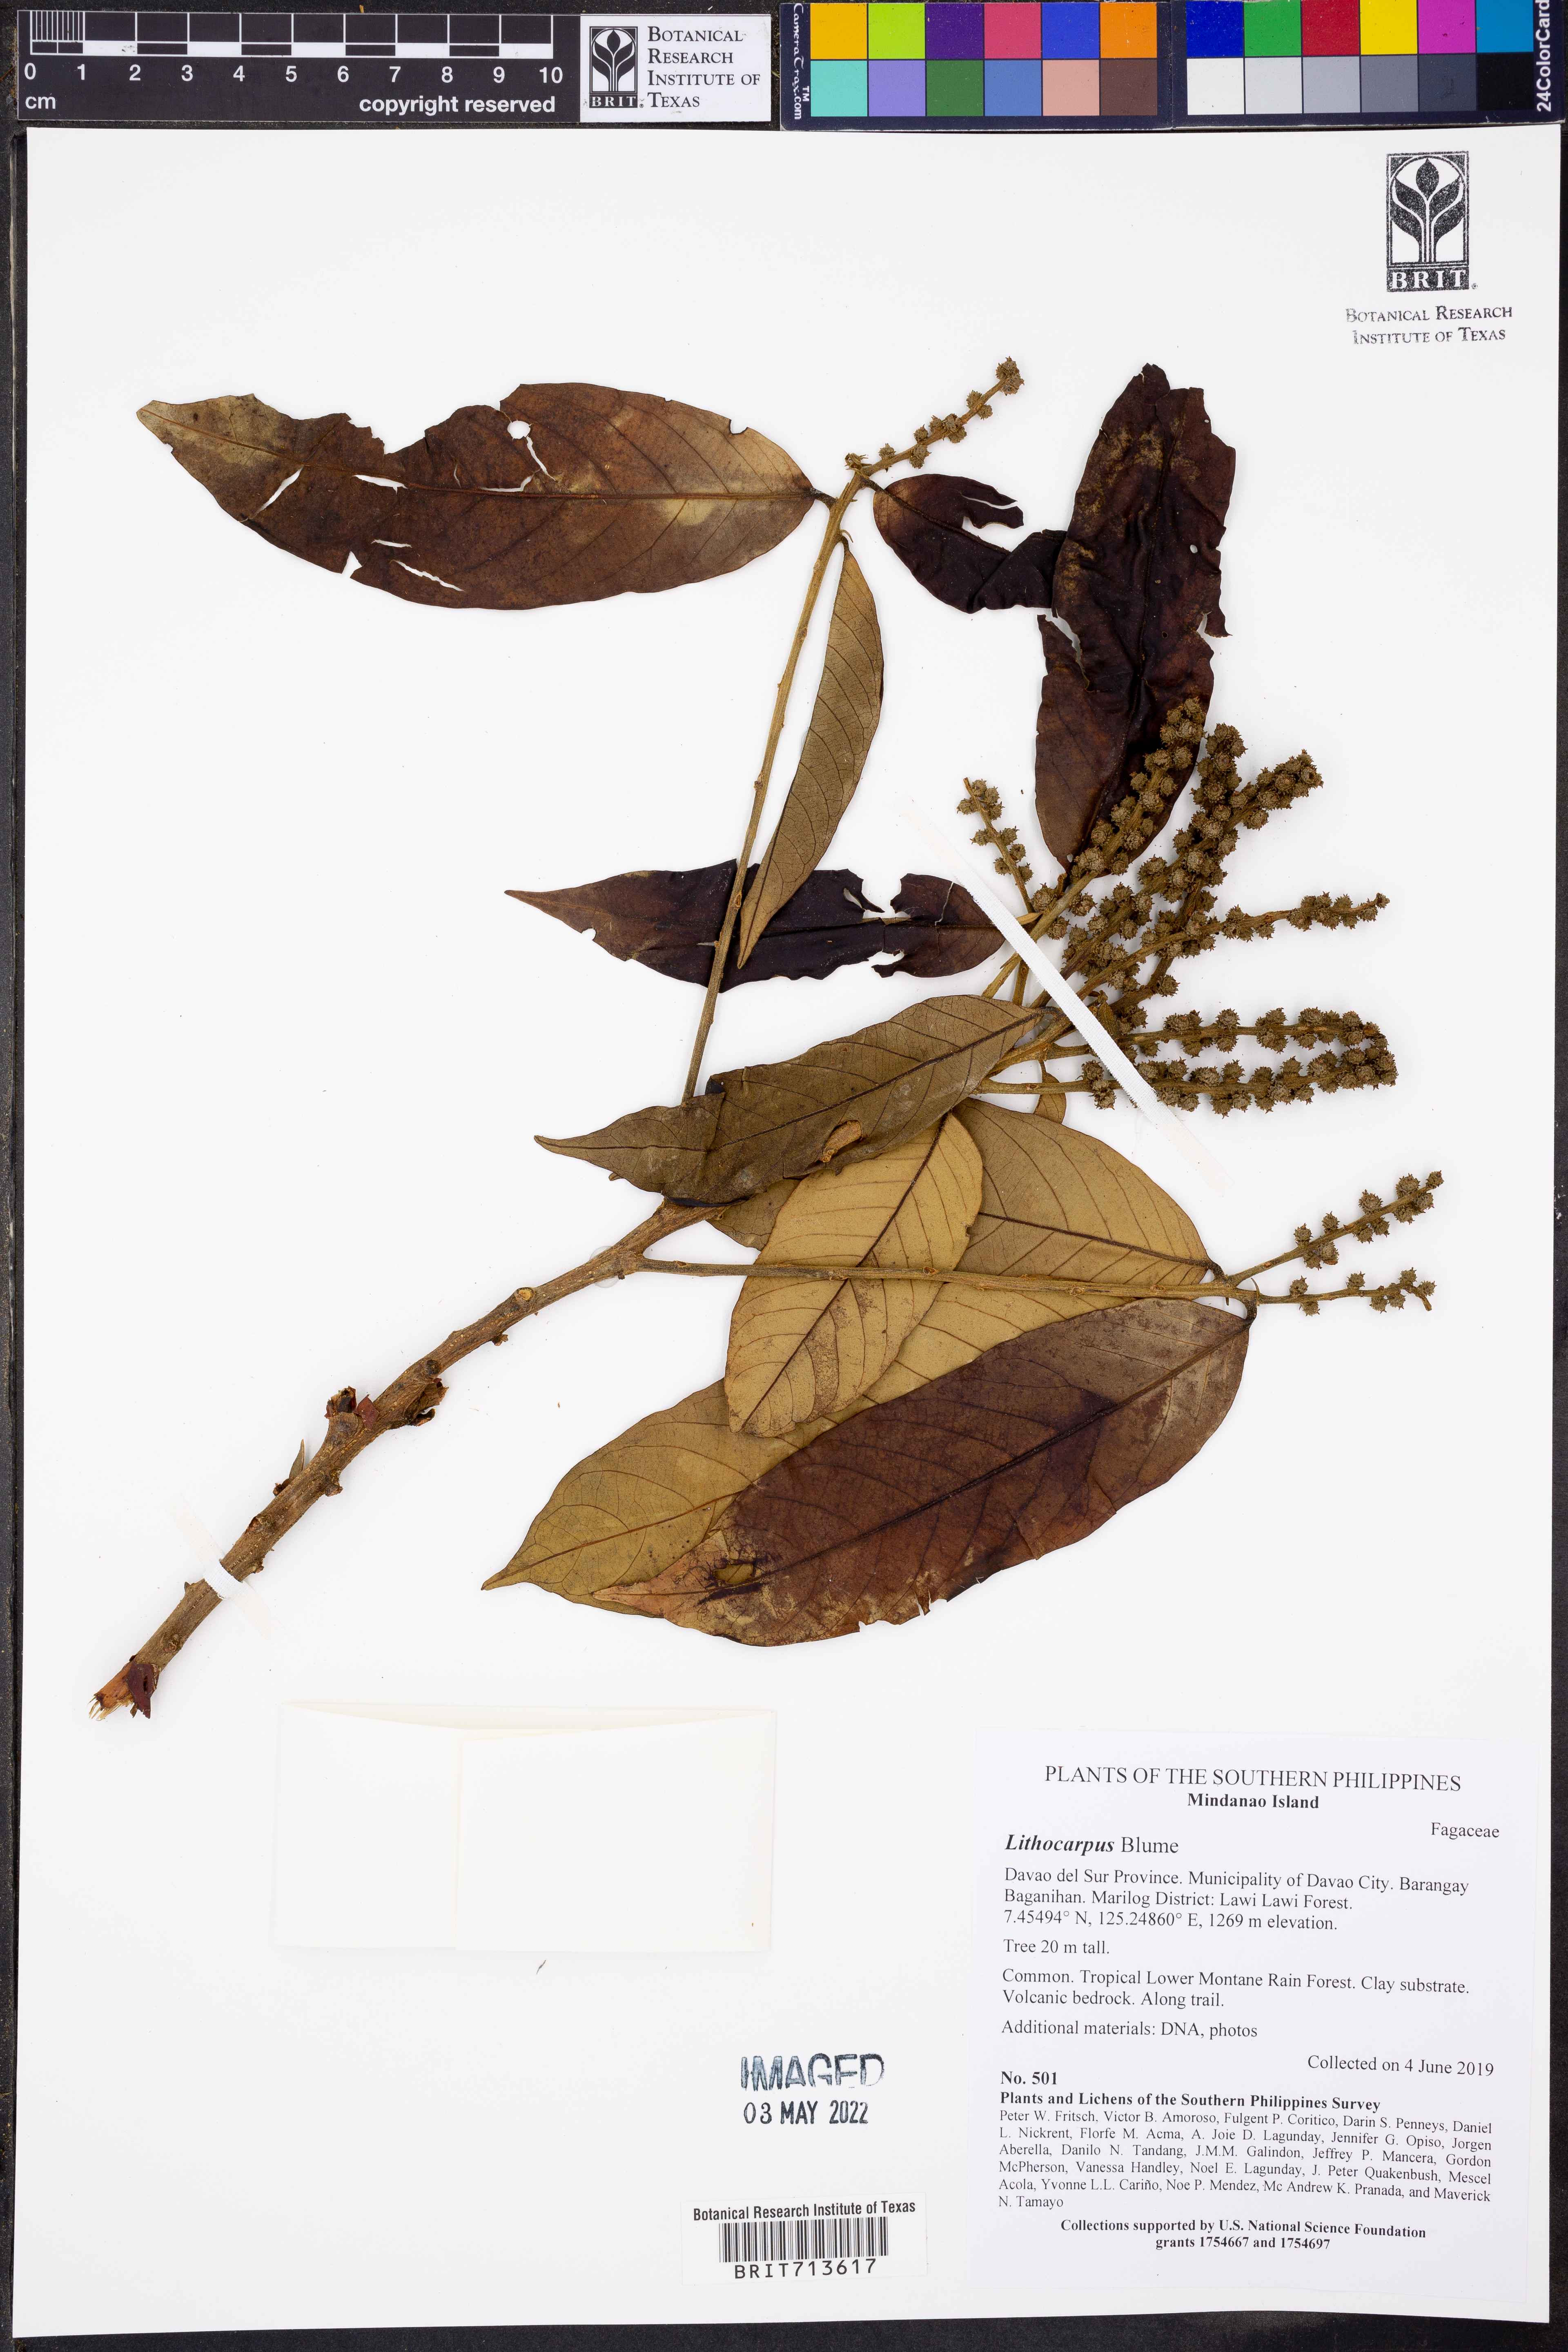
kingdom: Plantae
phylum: Tracheophyta
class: Magnoliopsida
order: Fagales
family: Fagaceae
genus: Lithocarpus
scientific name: Lithocarpus
